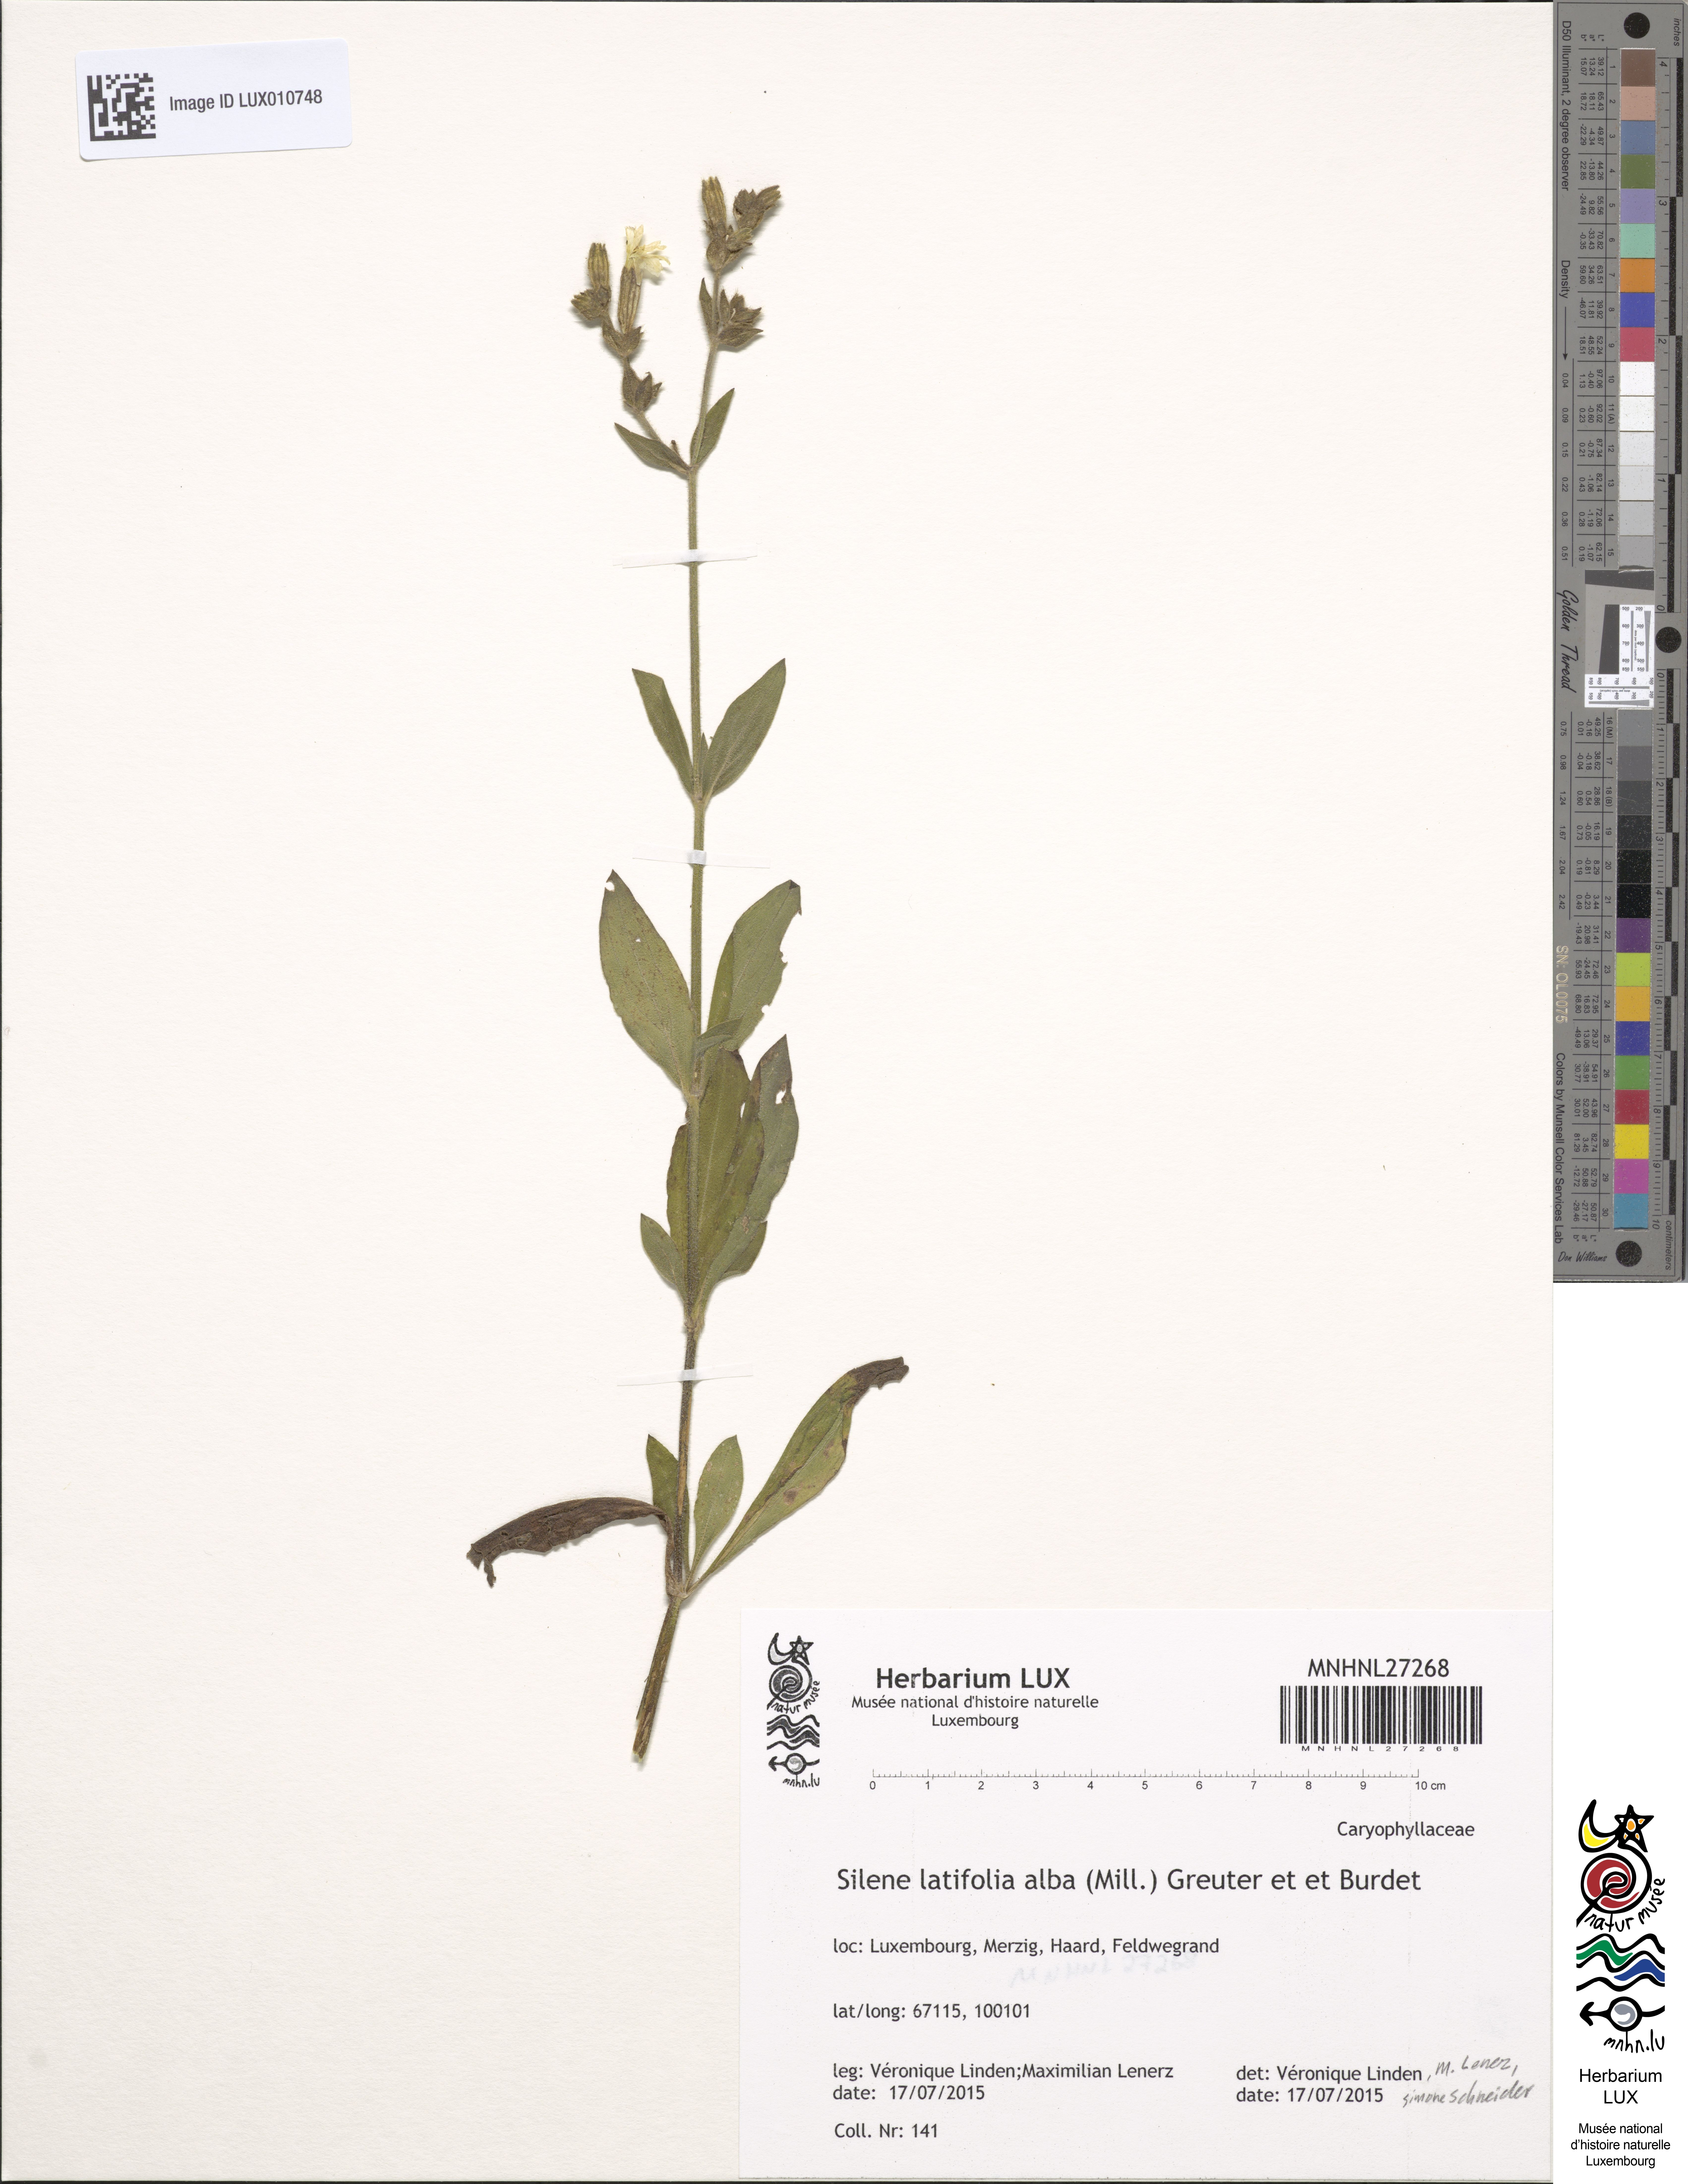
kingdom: Plantae
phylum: Tracheophyta
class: Magnoliopsida
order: Caryophyllales
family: Caryophyllaceae
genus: Silene
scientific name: Silene latifolia
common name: White campion
